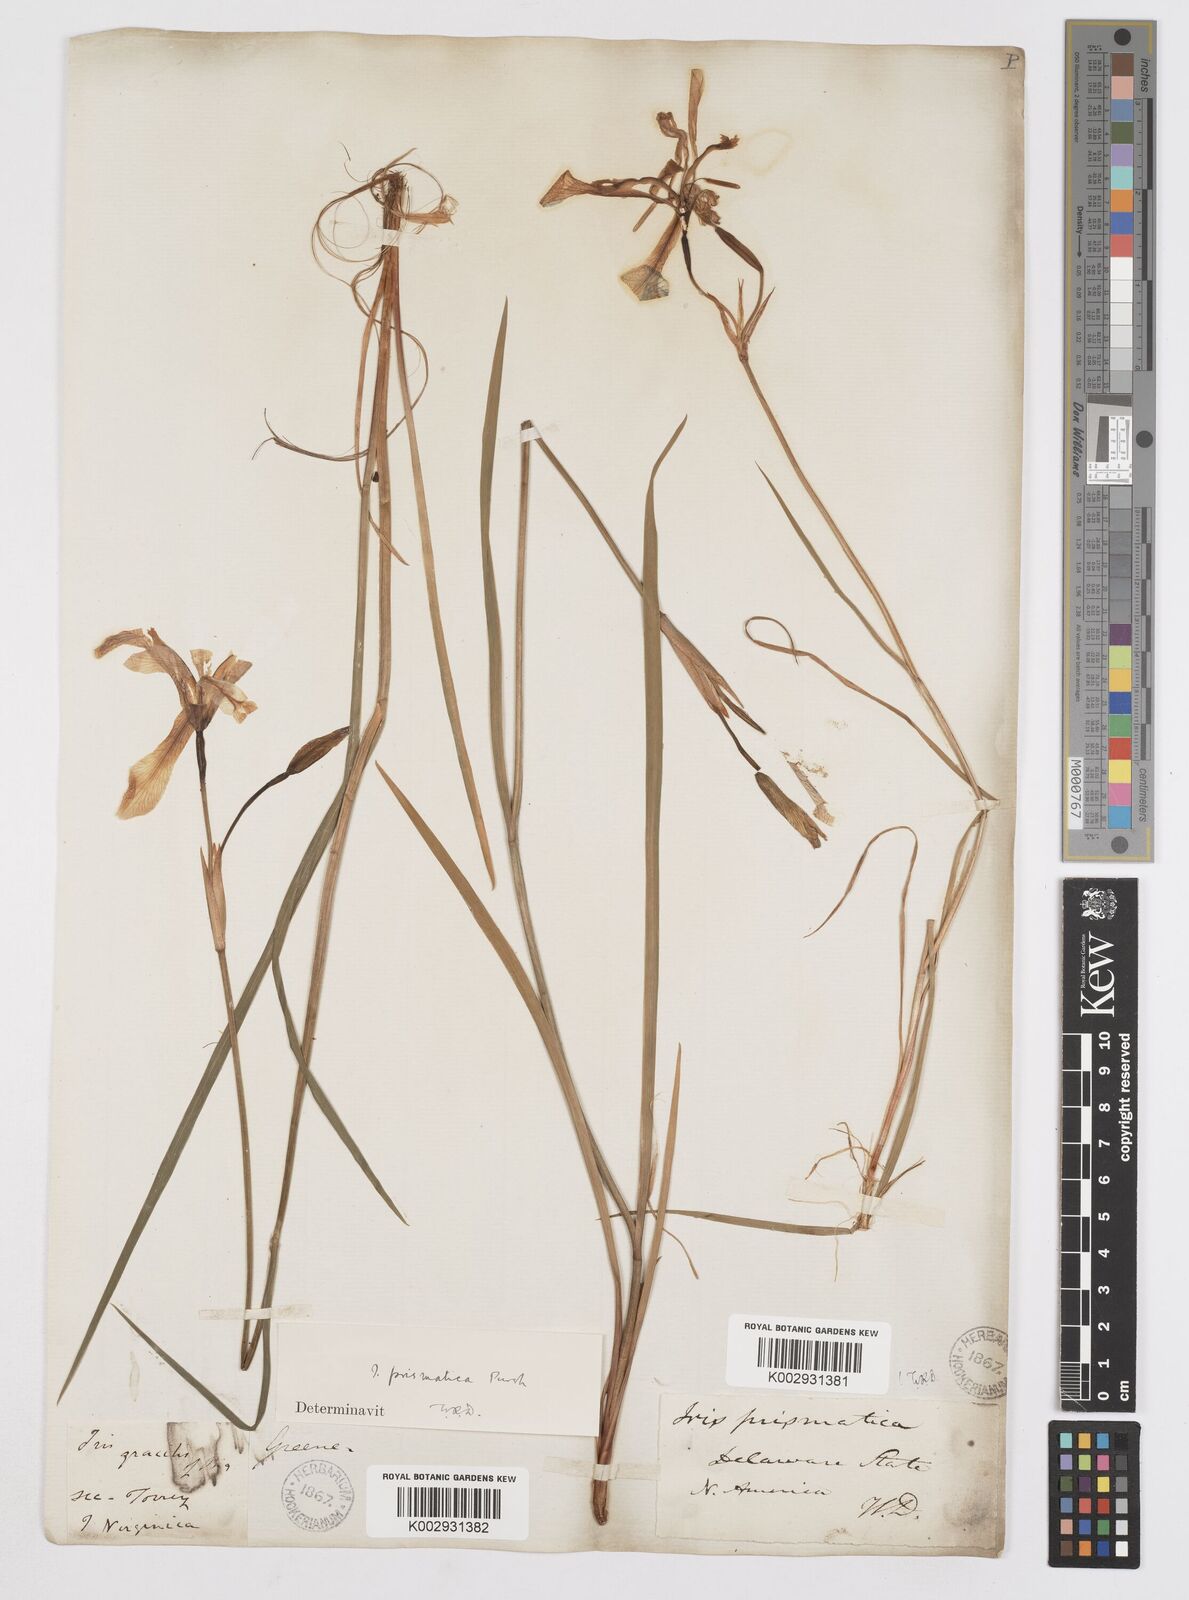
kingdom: Plantae
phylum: Tracheophyta
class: Liliopsida
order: Asparagales
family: Iridaceae
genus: Iris
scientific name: Iris prismatica
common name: Slender blue flag
